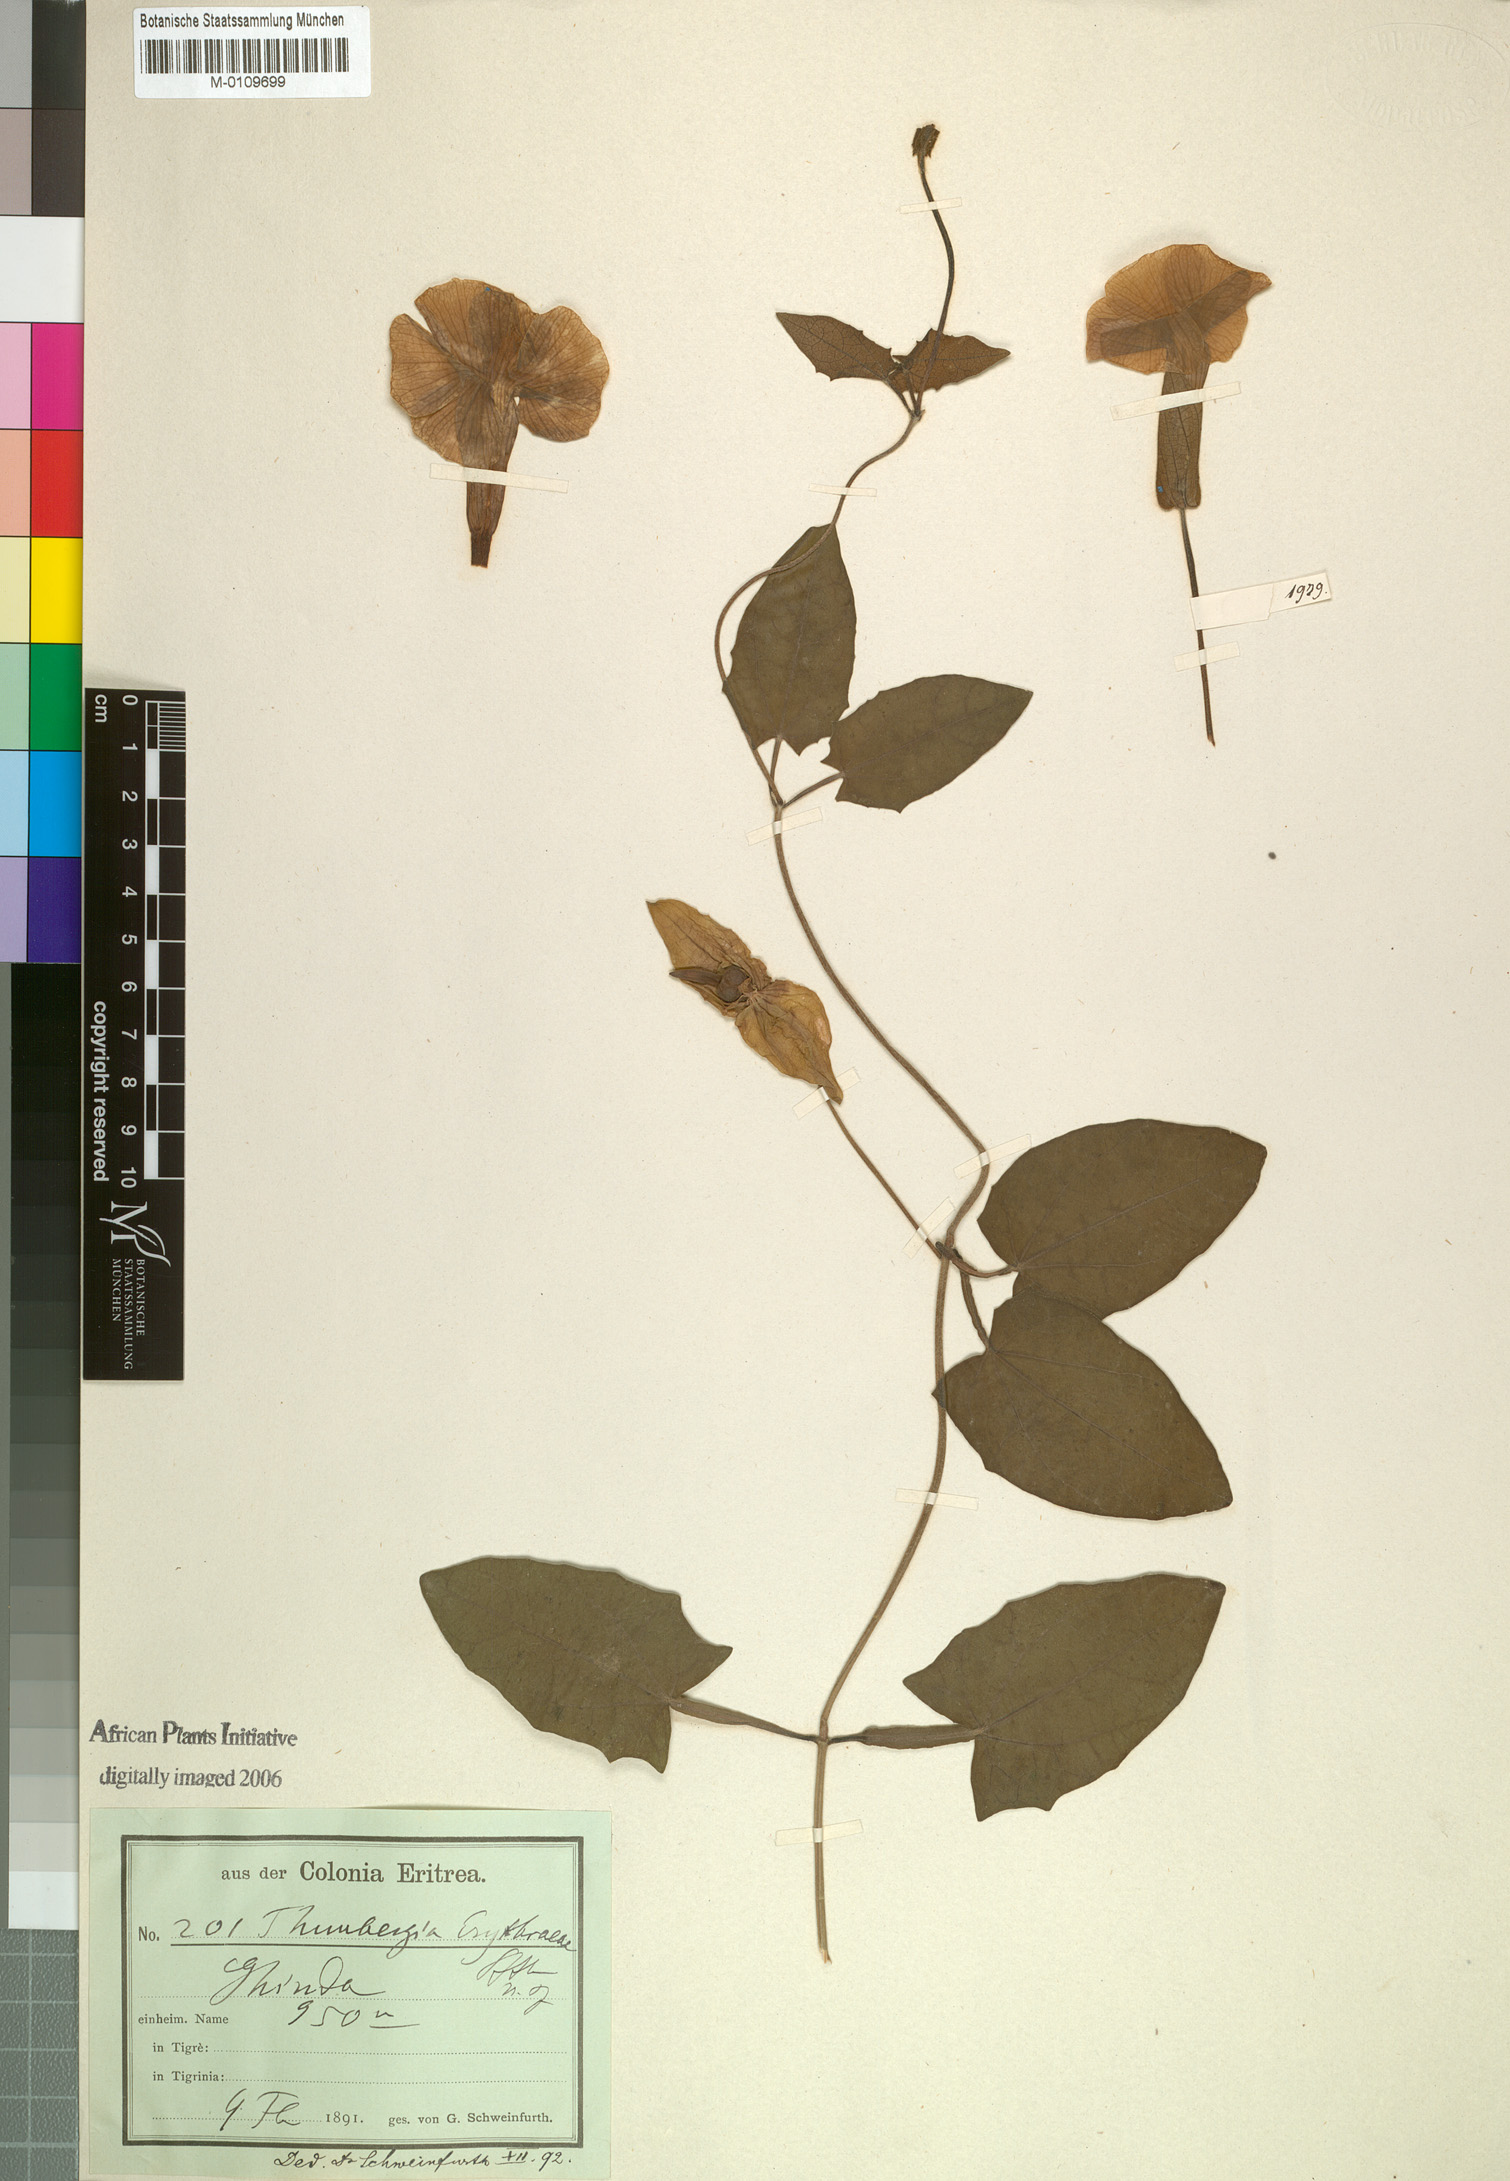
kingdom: Plantae
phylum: Tracheophyta
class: Magnoliopsida
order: Lamiales
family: Acanthaceae
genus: Thunbergia
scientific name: Thunbergia erythraeae
